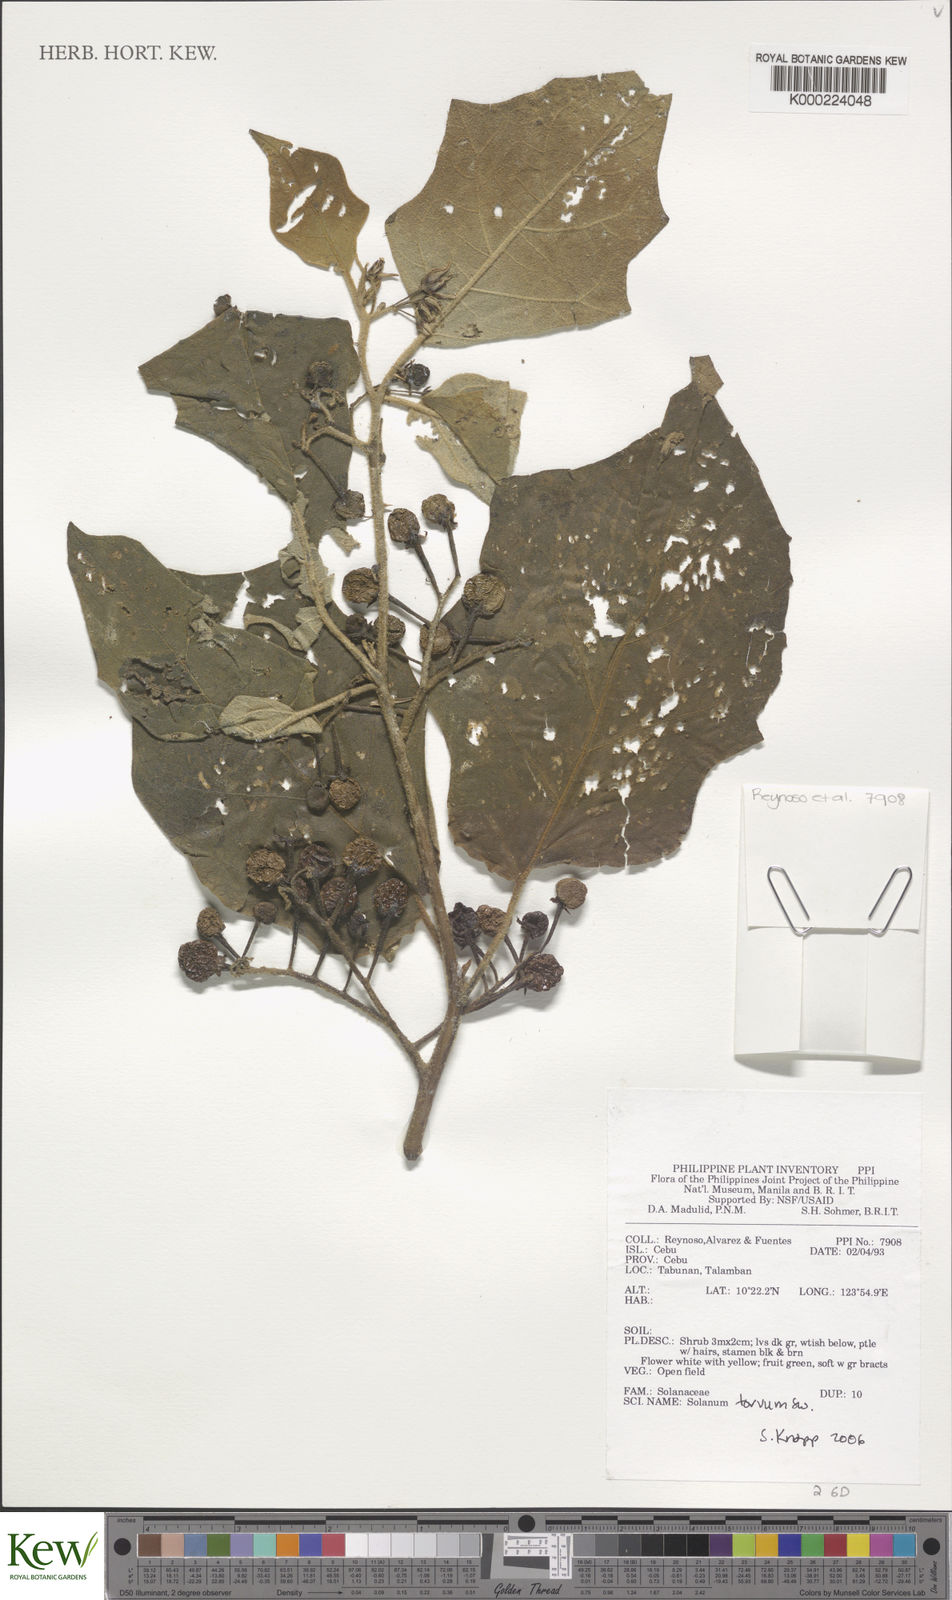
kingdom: Plantae
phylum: Tracheophyta
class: Magnoliopsida
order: Solanales
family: Solanaceae
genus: Solanum
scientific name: Solanum torvum
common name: Turkey berry
